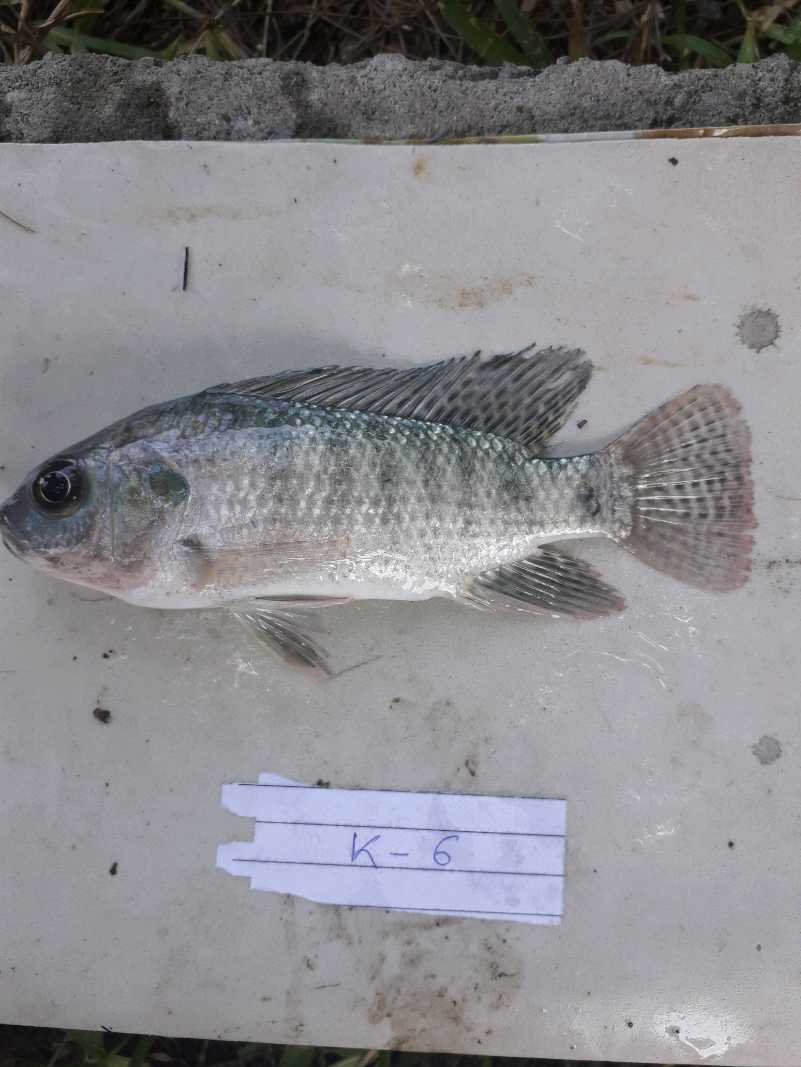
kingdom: Animalia
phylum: Chordata
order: Perciformes
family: Cichlidae
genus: Oreochromis
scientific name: Oreochromis niloticus
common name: Nile tilapia
